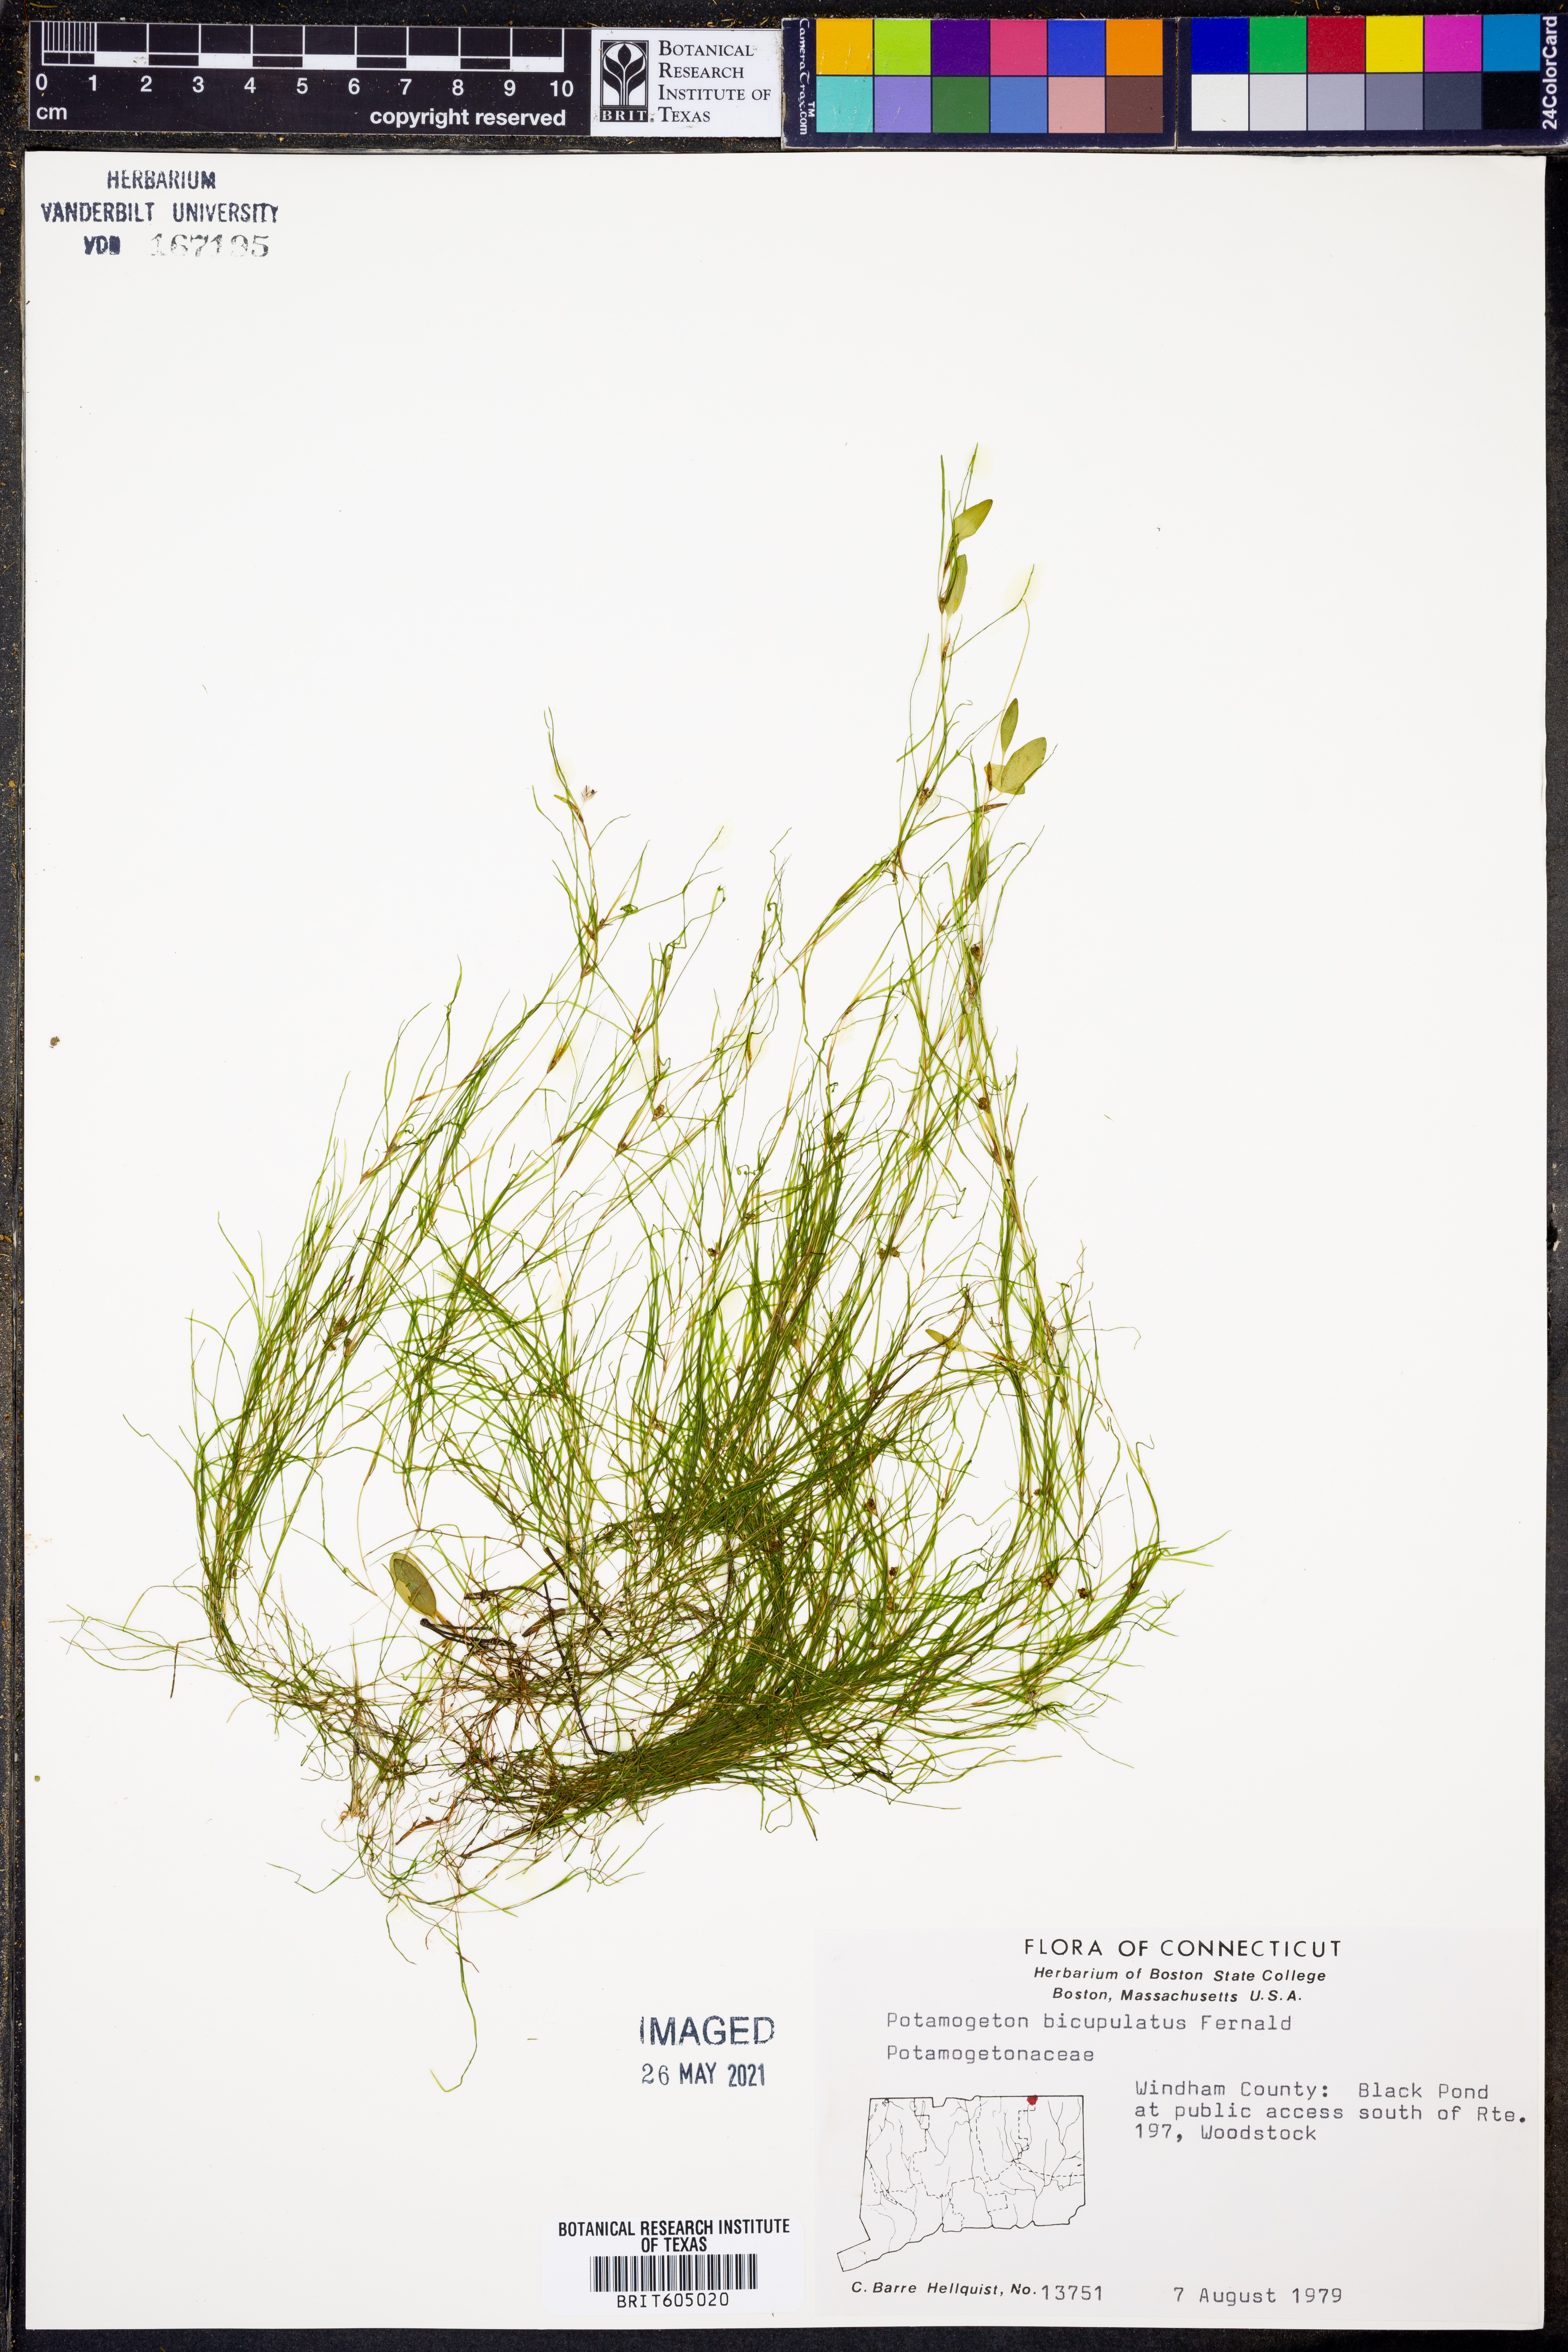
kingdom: Plantae
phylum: Tracheophyta
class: Liliopsida
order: Alismatales
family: Potamogetonaceae
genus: Potamogeton
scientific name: Potamogeton bicupulatus
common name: Snail-seed pondweed
